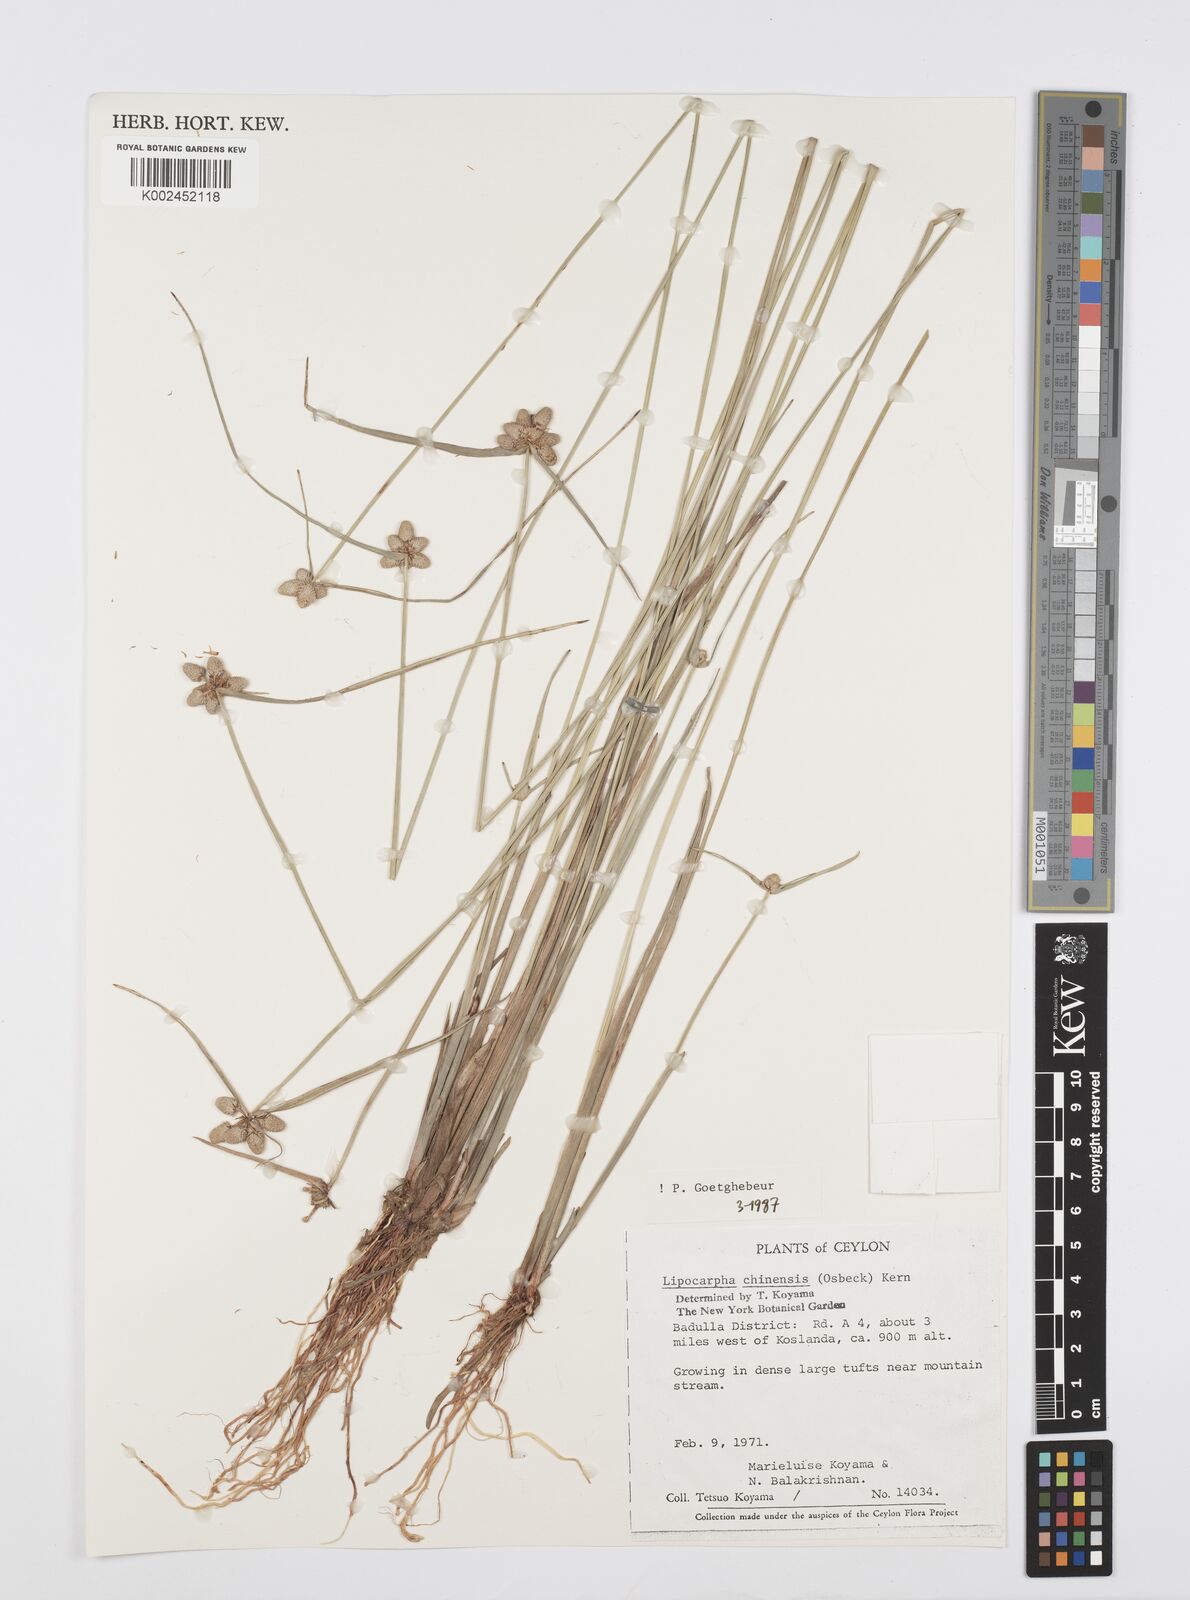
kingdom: Plantae
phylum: Tracheophyta
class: Liliopsida
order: Poales
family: Cyperaceae
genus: Cyperus
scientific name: Cyperus
